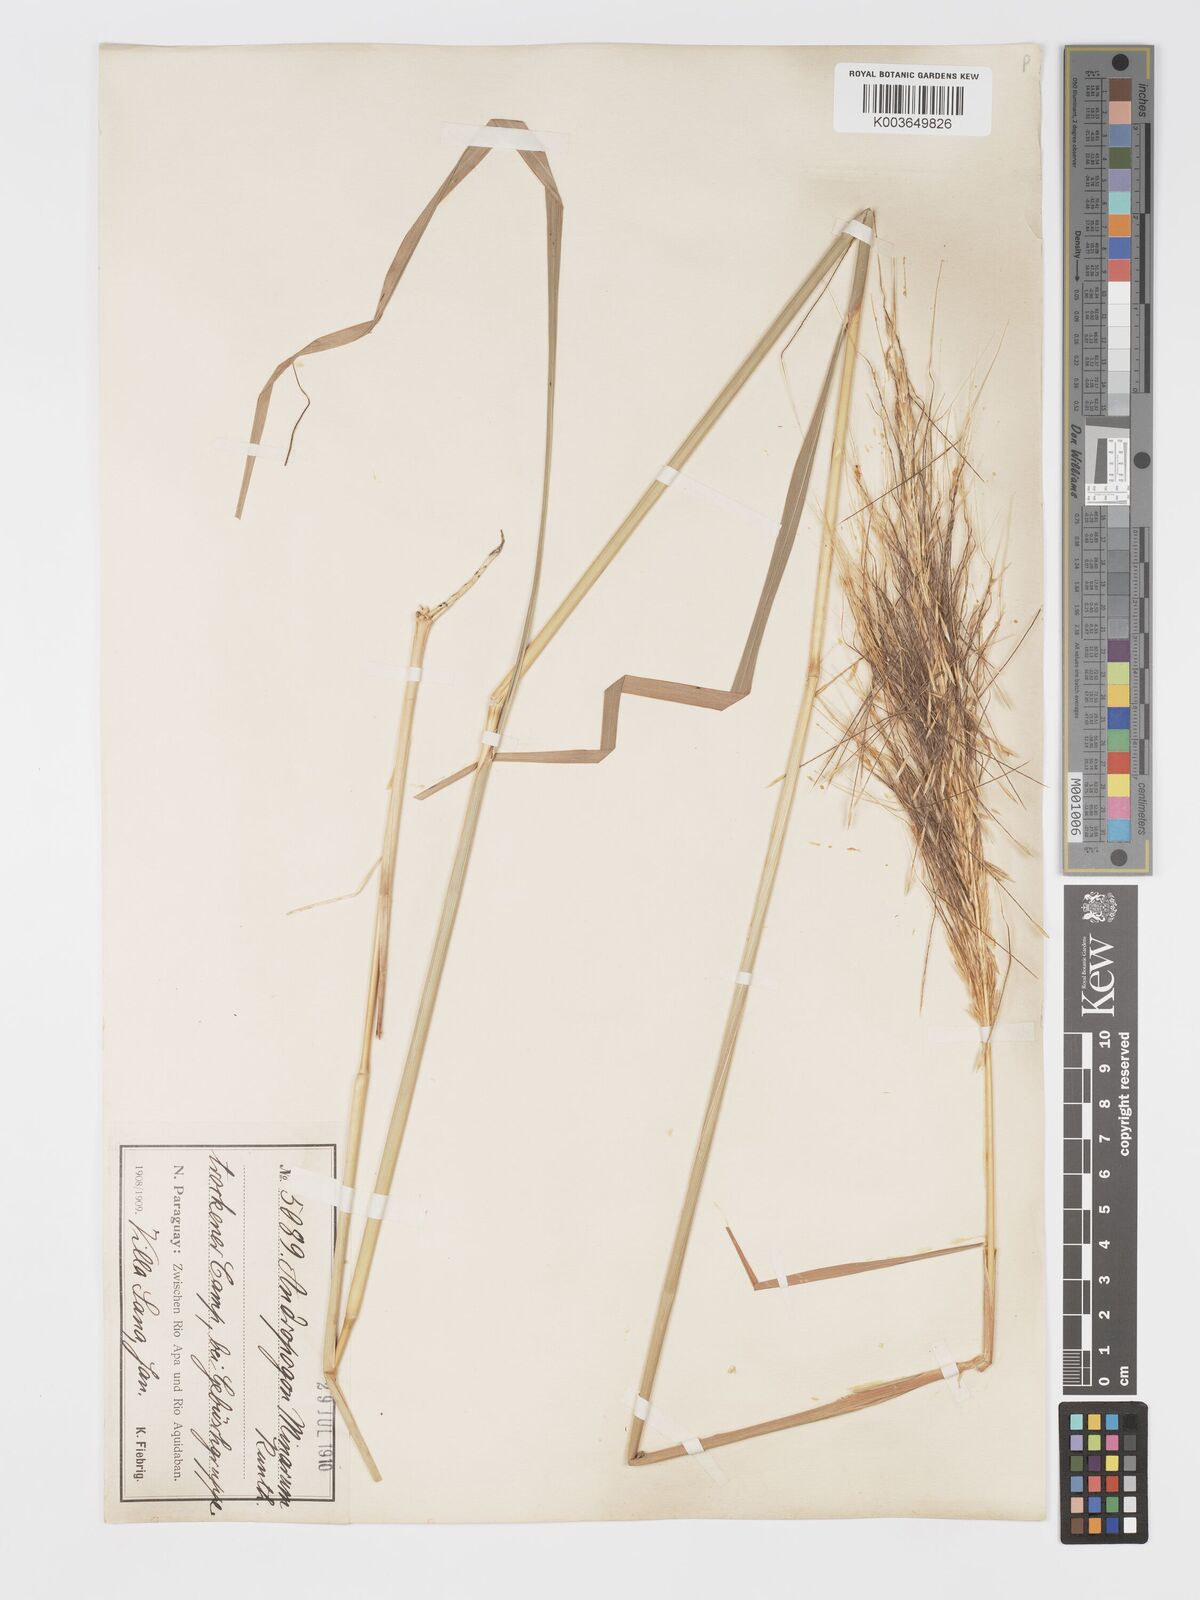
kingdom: Plantae
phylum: Tracheophyta
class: Liliopsida
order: Poales
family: Poaceae
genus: Sorghastrum
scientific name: Sorghastrum minarum
